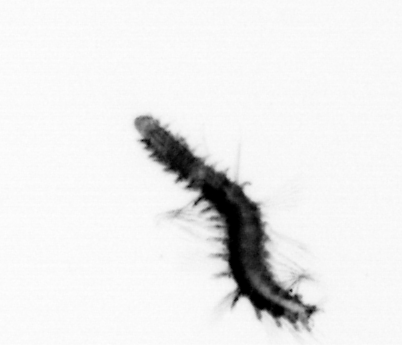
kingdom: Animalia
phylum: Annelida
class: Polychaeta
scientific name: Polychaeta
